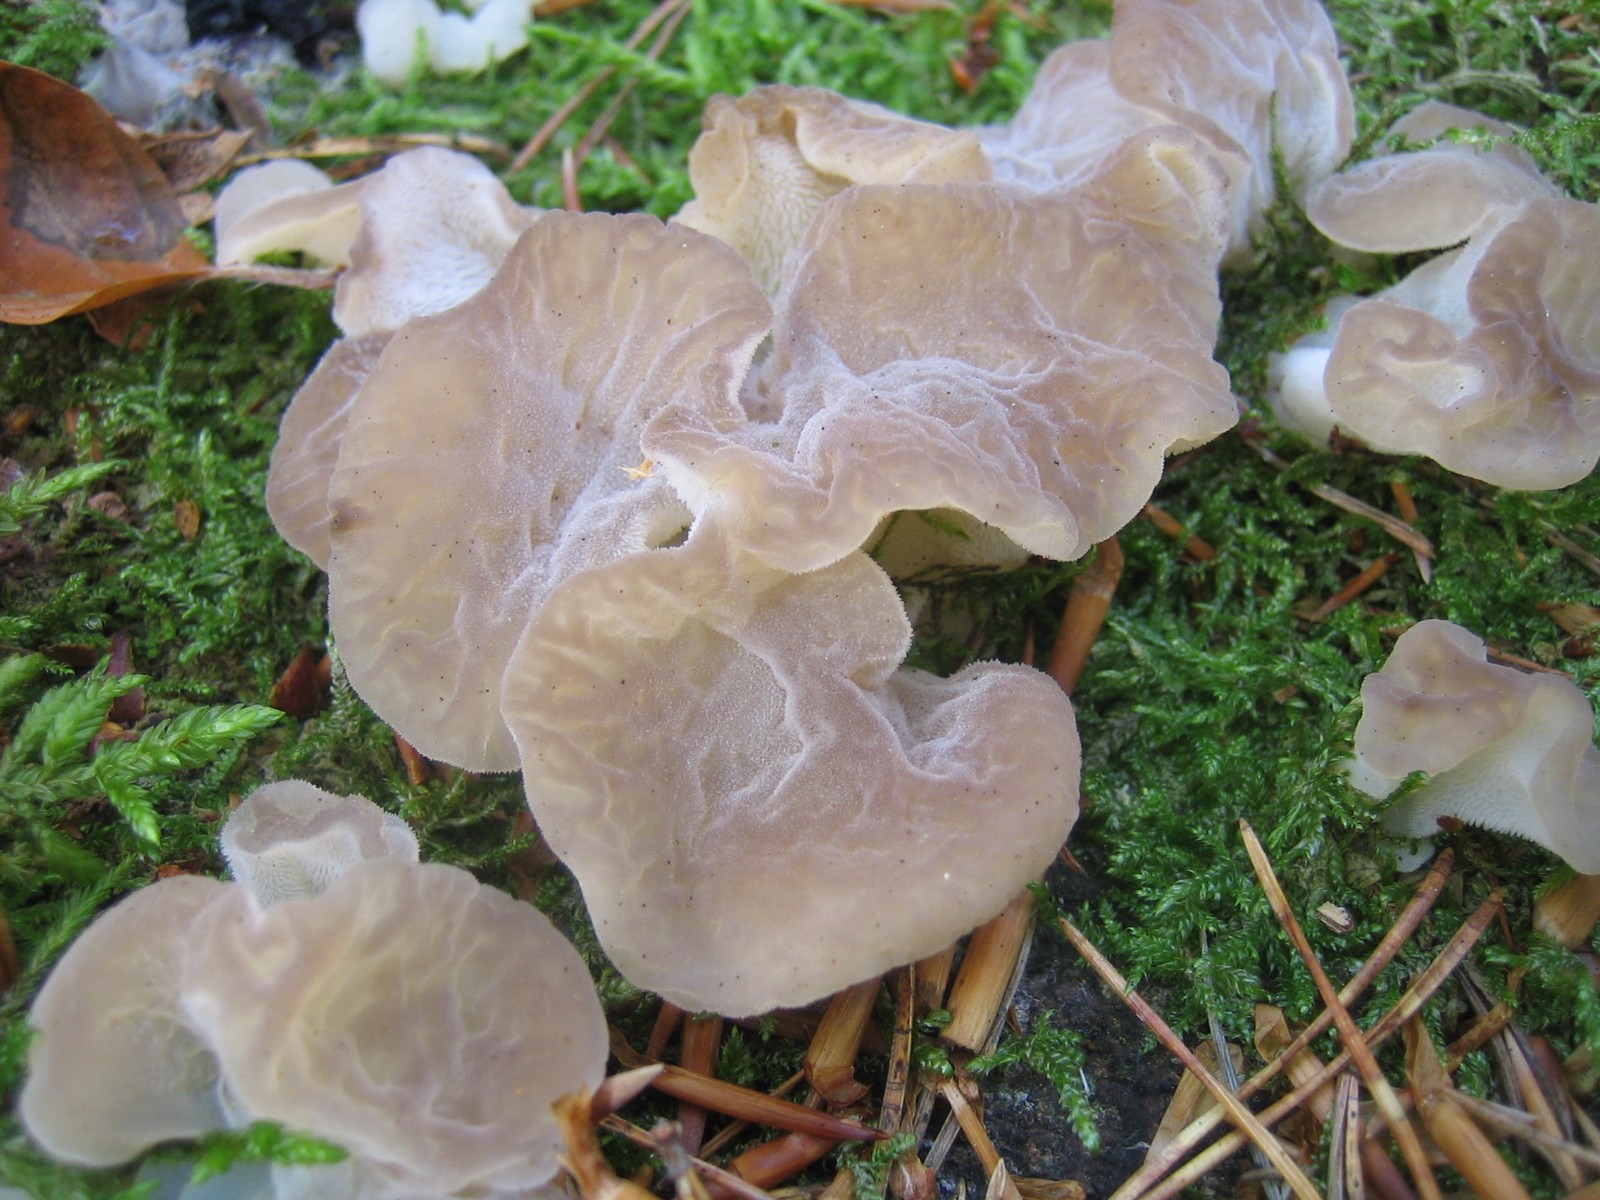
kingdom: Fungi
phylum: Basidiomycota
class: Agaricomycetes
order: Auriculariales
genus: Pseudohydnum
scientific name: Pseudohydnum gelatinosum
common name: bævretand
